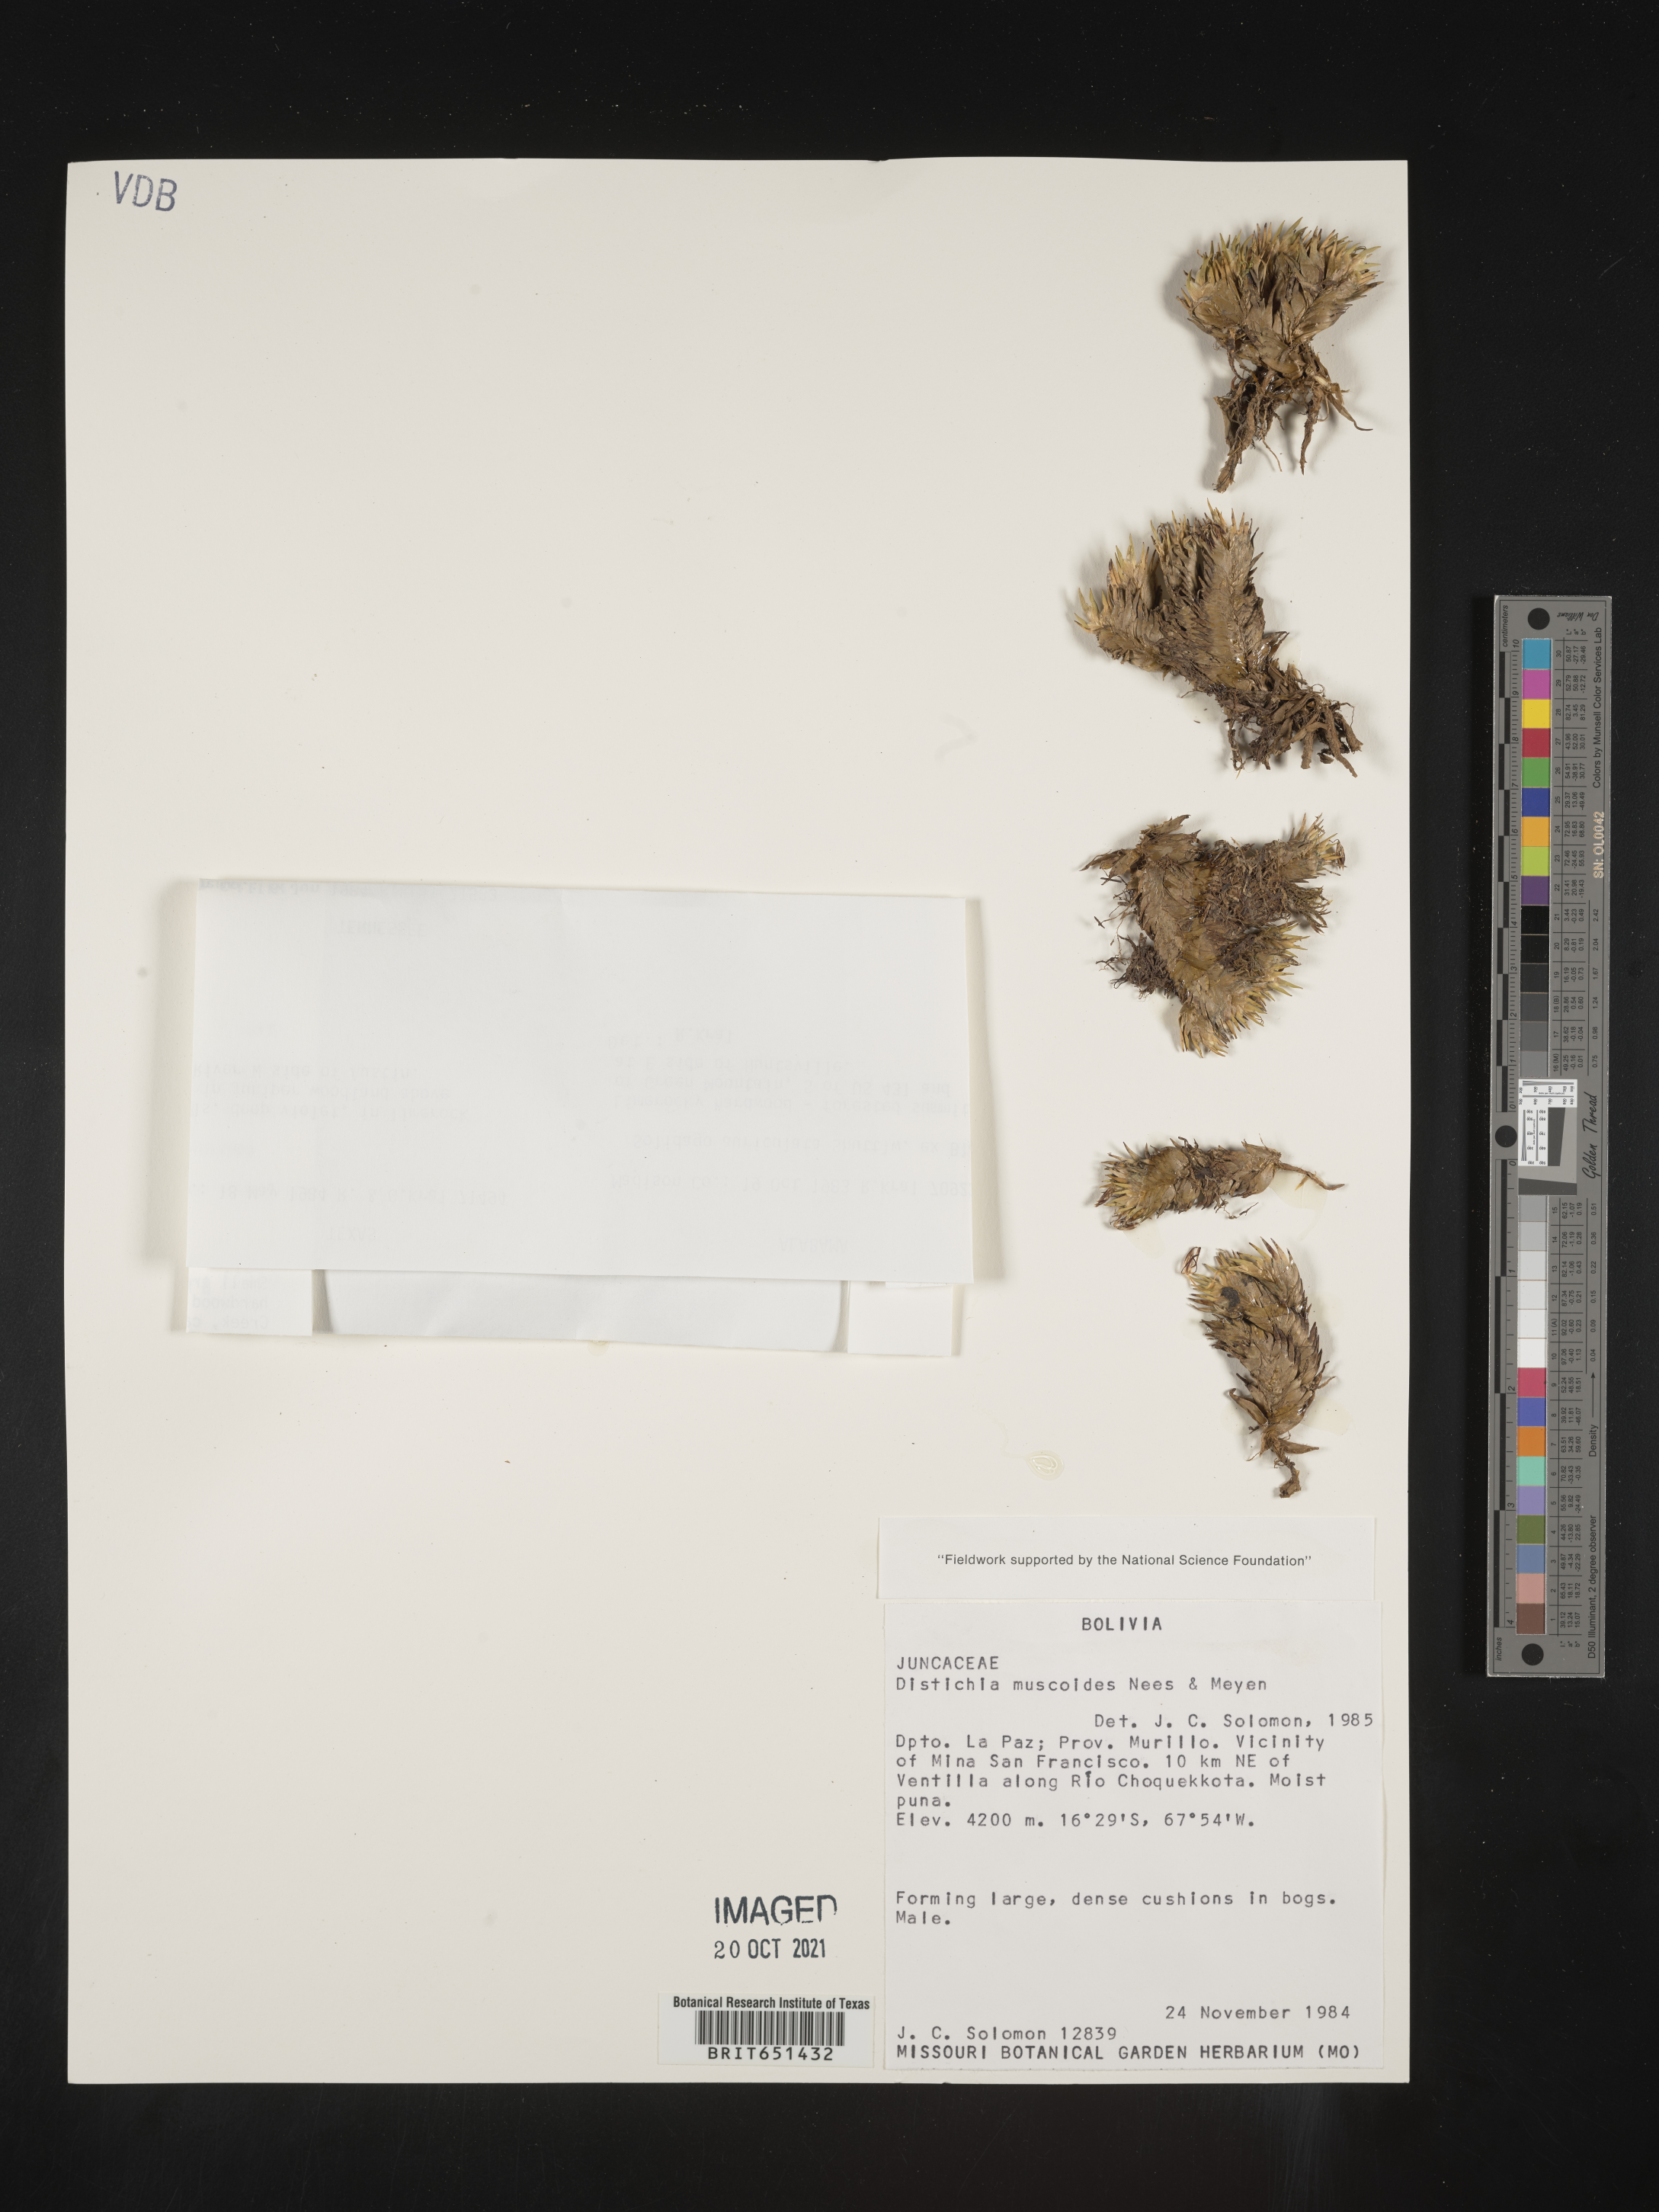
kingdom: Plantae
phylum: Tracheophyta
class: Liliopsida
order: Poales
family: Juncaceae
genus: Distichia
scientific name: Distichia
